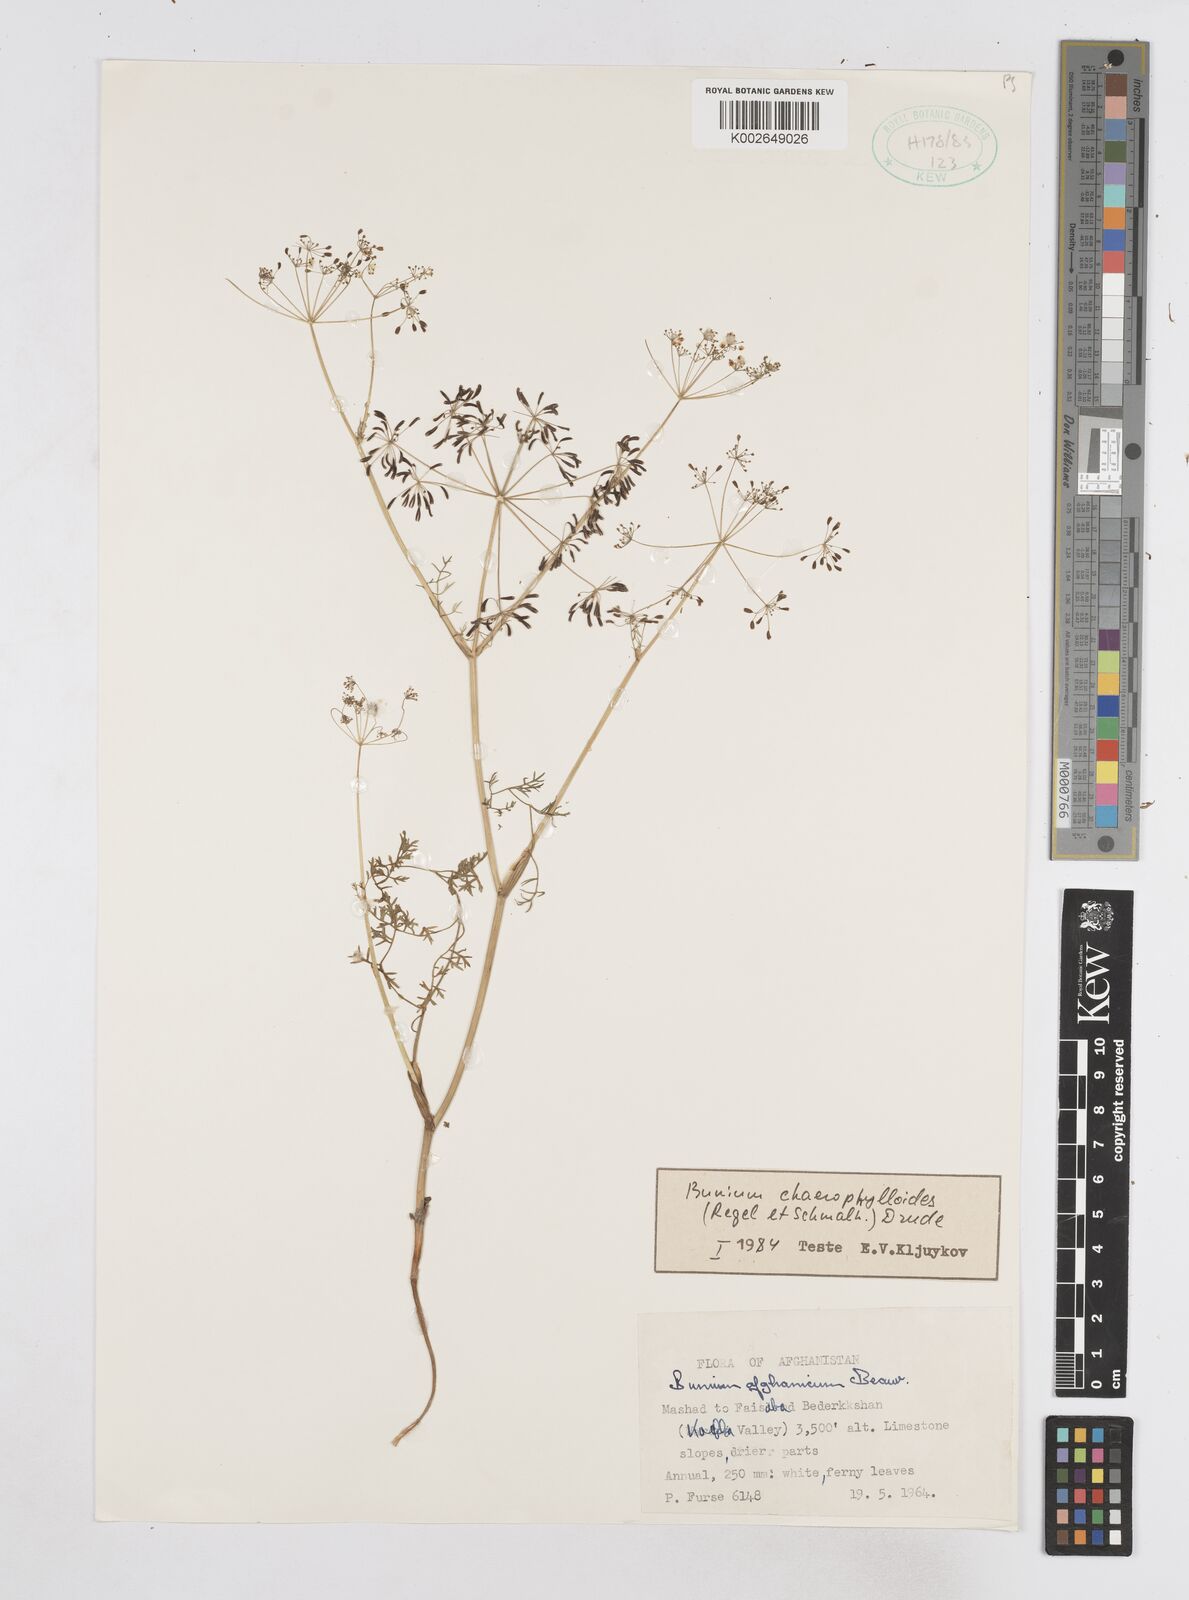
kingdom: Plantae
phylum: Tracheophyta
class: Magnoliopsida
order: Apiales
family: Apiaceae
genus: Elwendia
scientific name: Elwendia chaerophylloides
